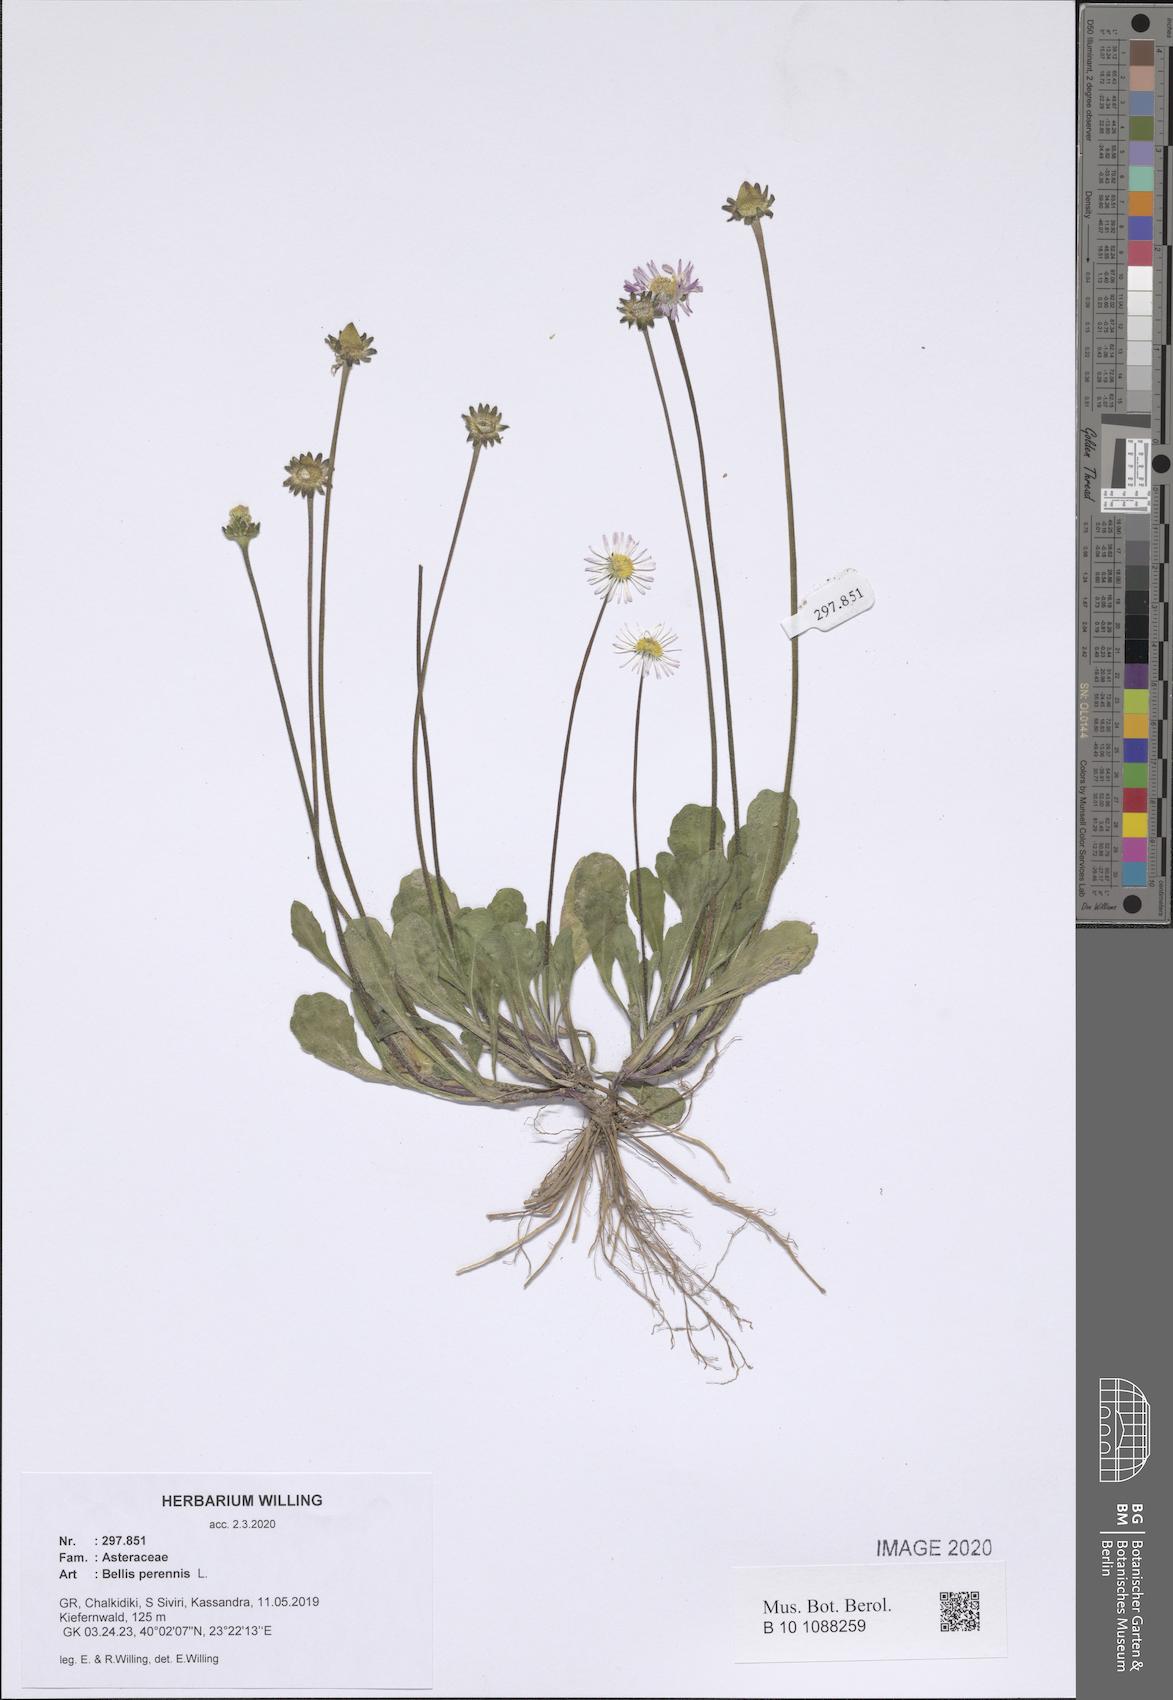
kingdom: Plantae
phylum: Tracheophyta
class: Magnoliopsida
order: Asterales
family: Asteraceae
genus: Bellis
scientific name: Bellis perennis
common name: Lawndaisy
